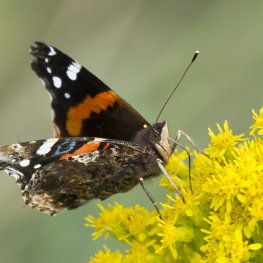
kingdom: Animalia
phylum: Arthropoda
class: Insecta
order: Lepidoptera
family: Nymphalidae
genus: Vanessa
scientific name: Vanessa atalanta
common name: Red Admiral
